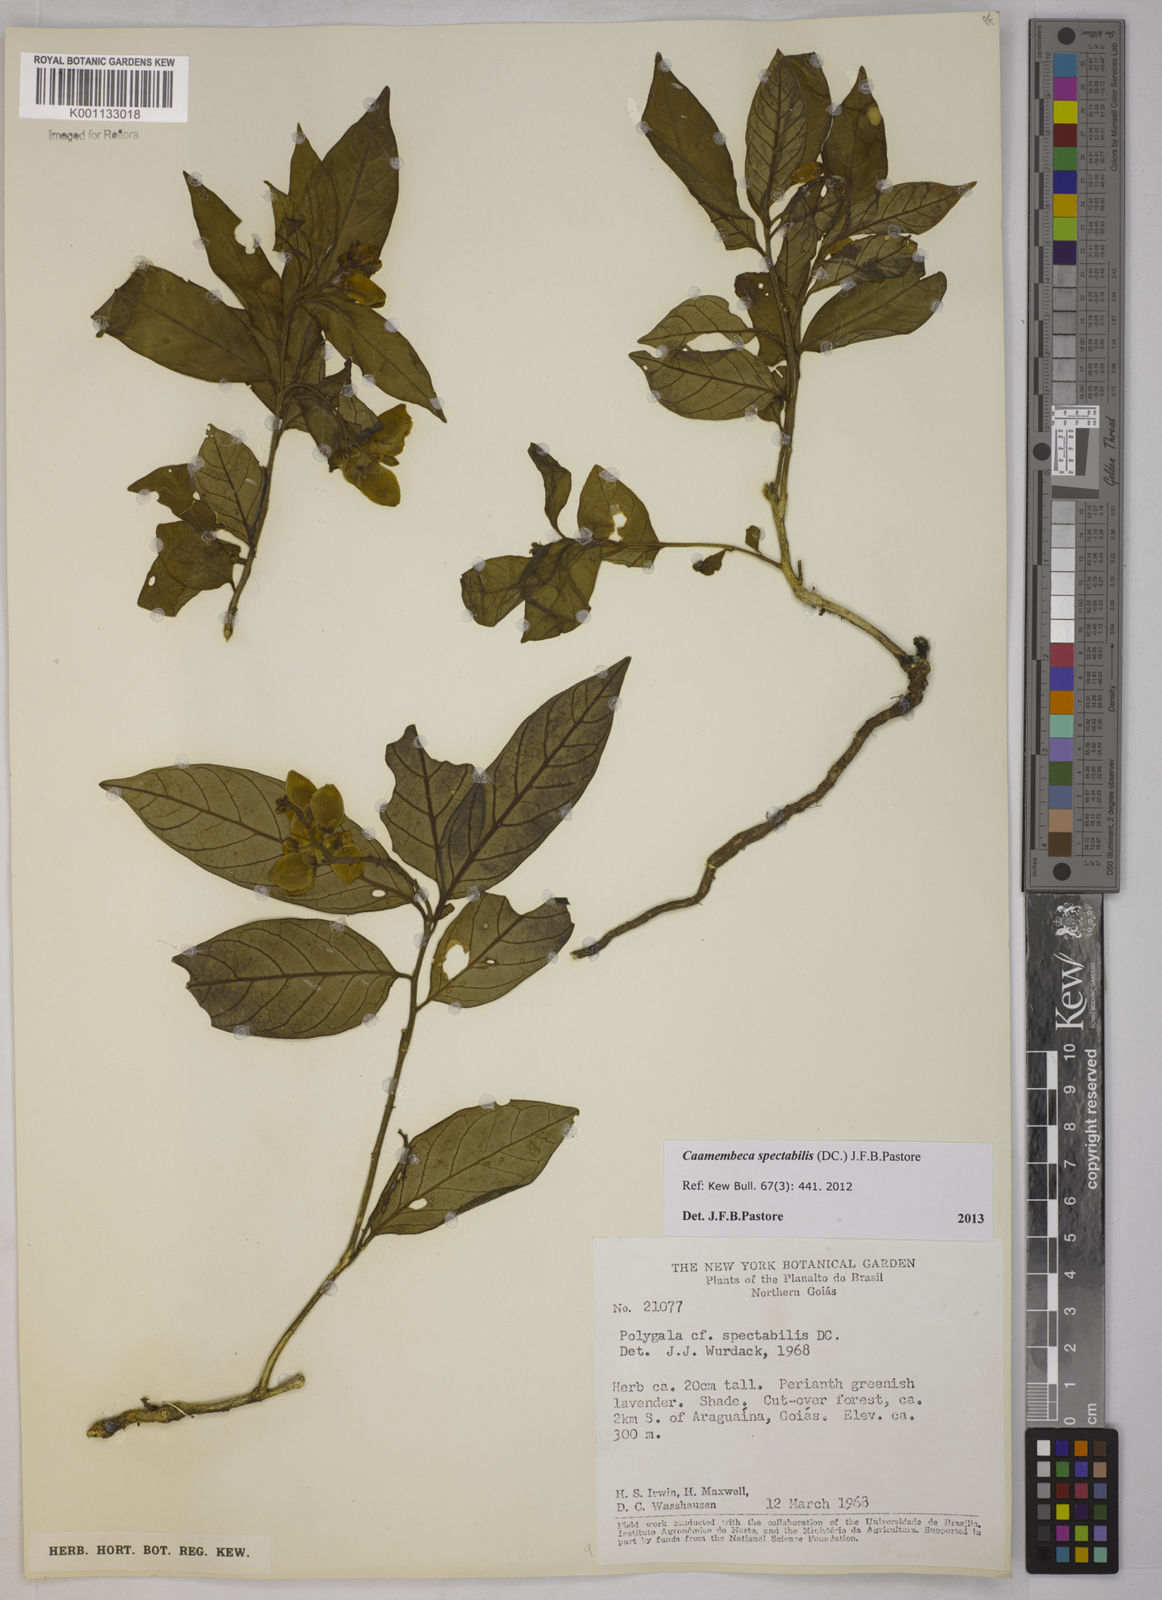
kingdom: Plantae
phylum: Tracheophyta
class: Magnoliopsida
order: Fabales
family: Polygalaceae
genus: Polygala
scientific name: Polygala
